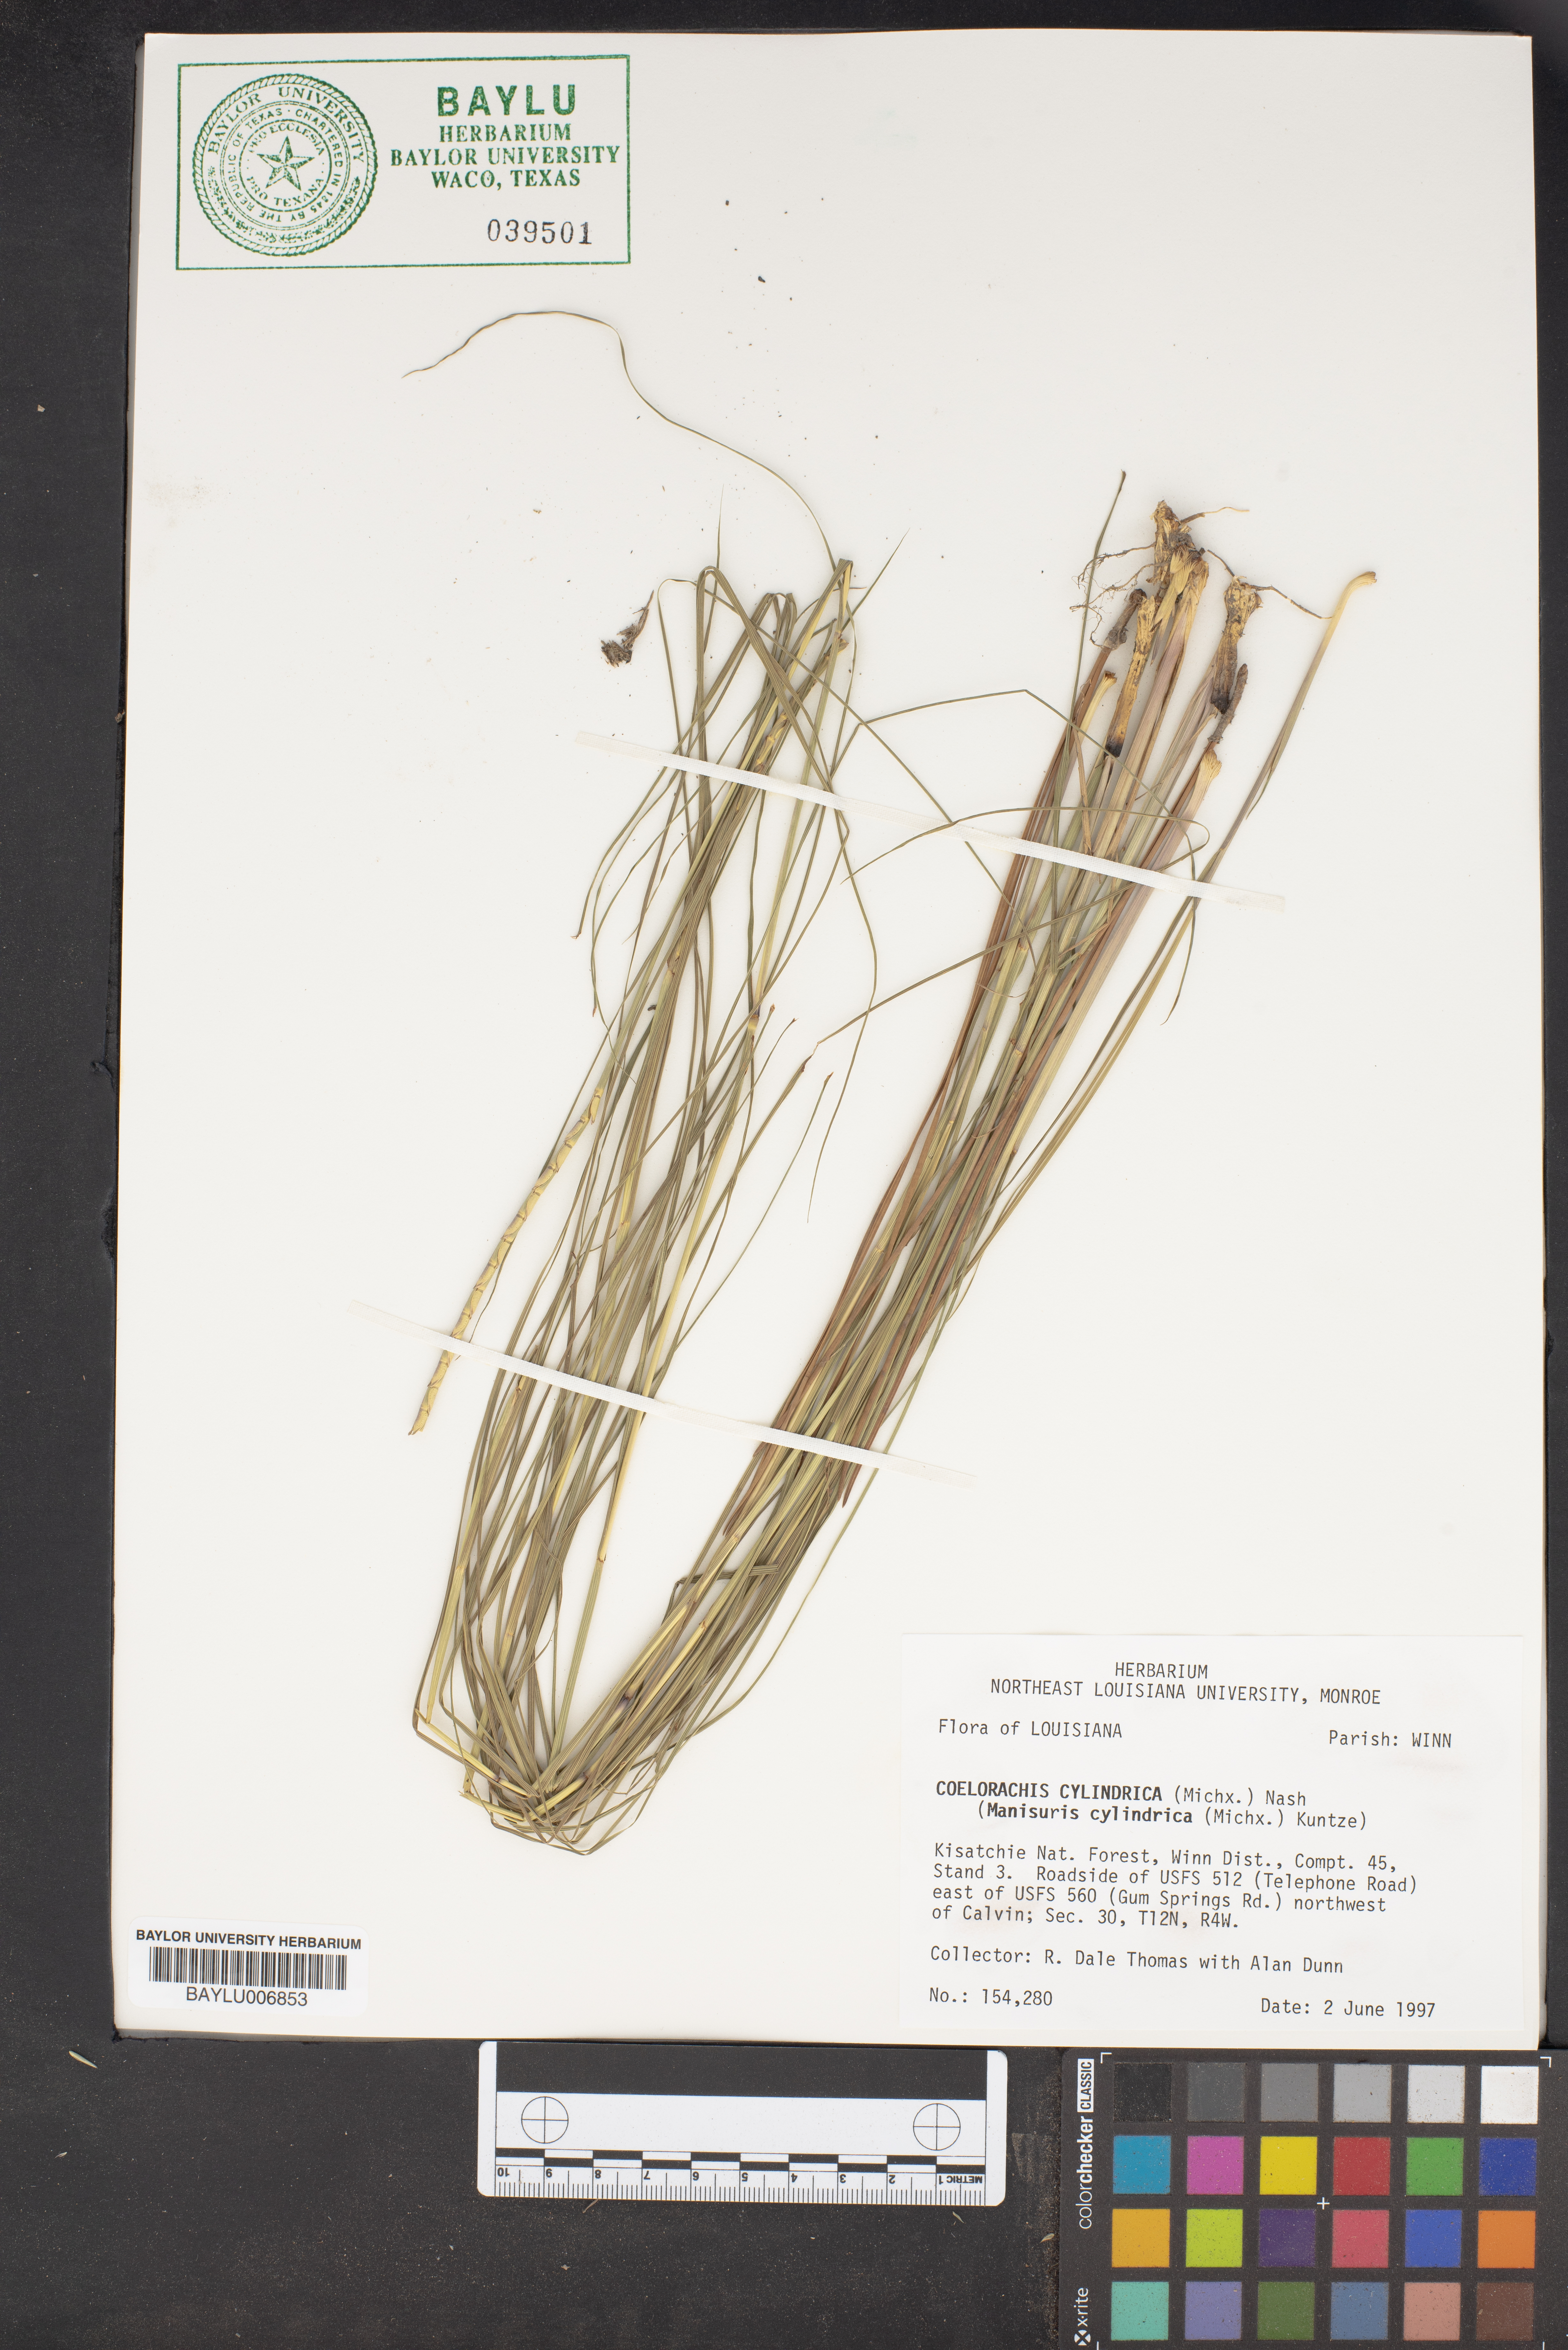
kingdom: Plantae
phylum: Tracheophyta
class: Liliopsida
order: Poales
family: Poaceae
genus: Rottboellia
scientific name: Rottboellia campestris
